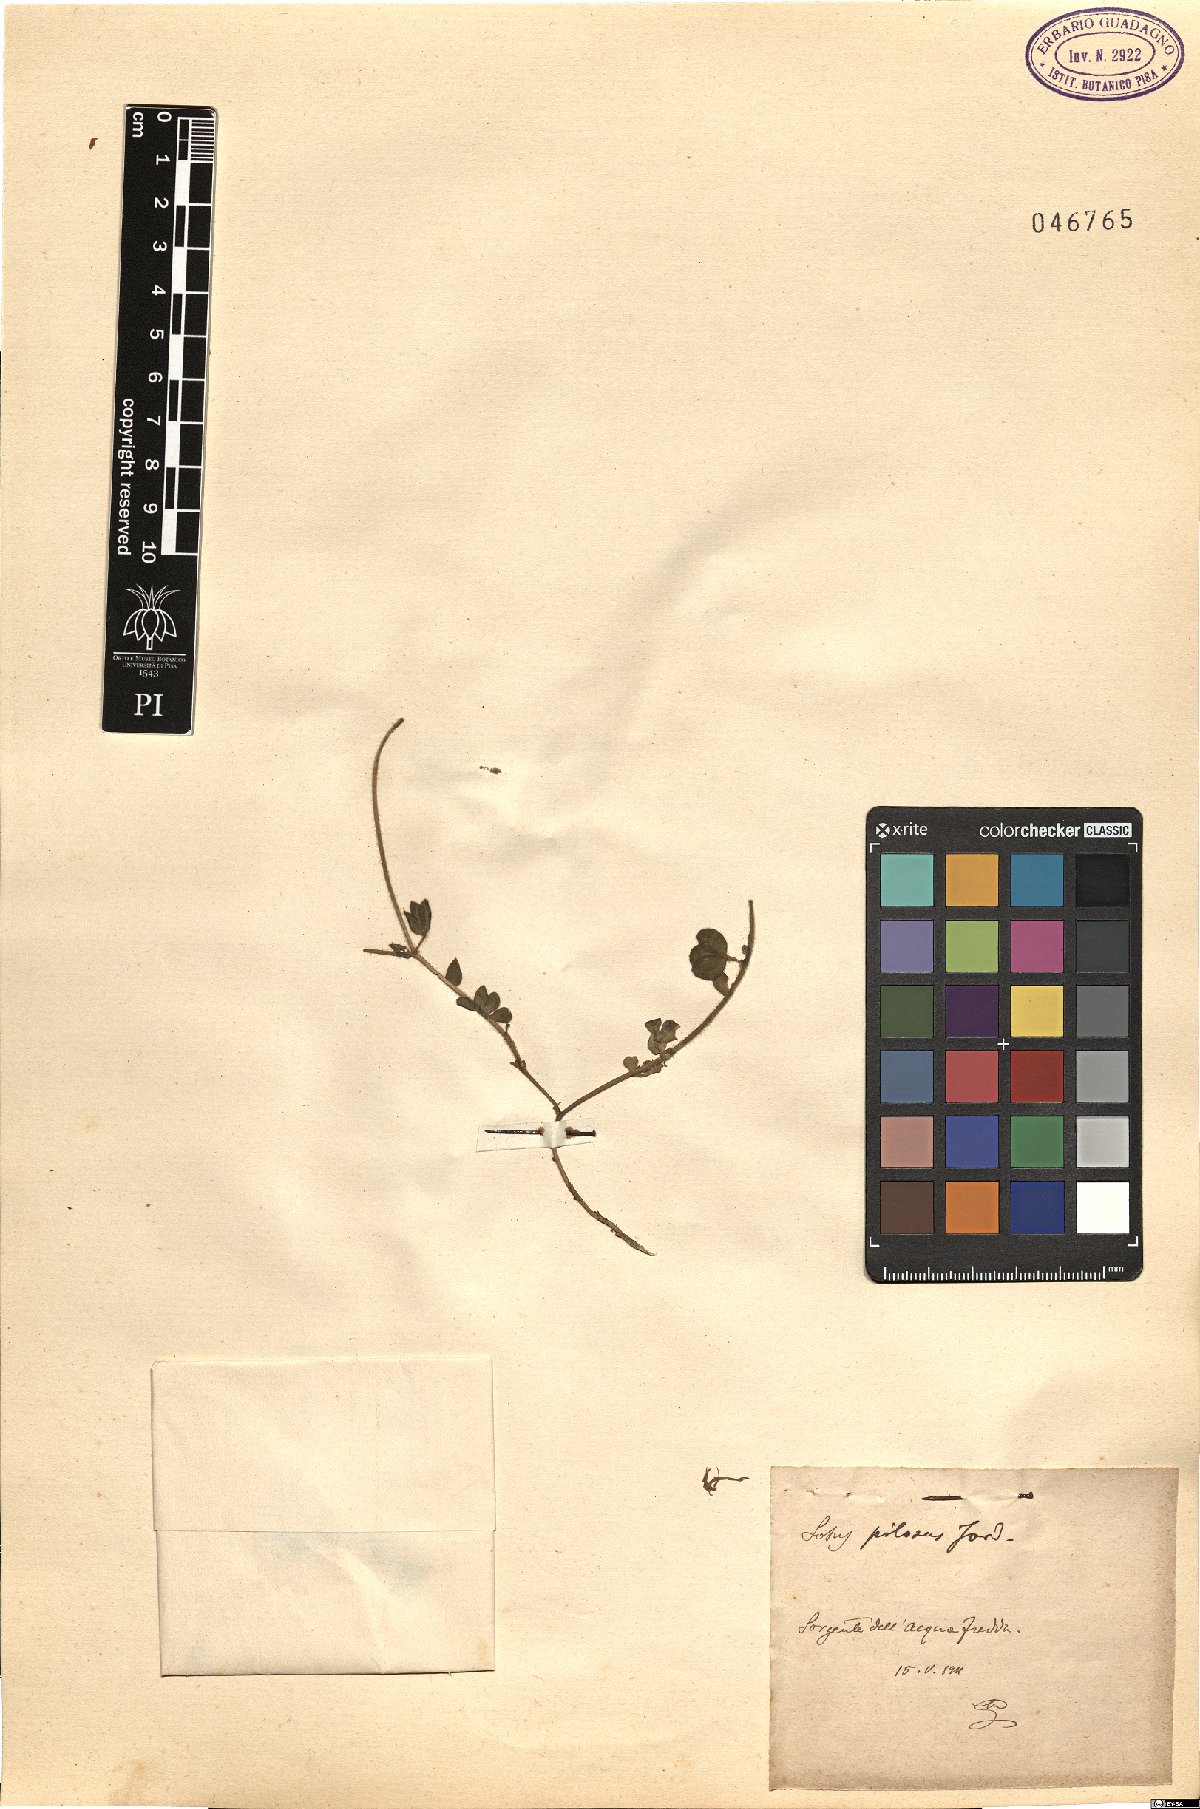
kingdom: Plantae
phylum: Tracheophyta
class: Magnoliopsida
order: Fabales
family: Fabaceae
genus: Lotus
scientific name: Lotus corniculatus
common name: Common bird's-foot-trefoil
